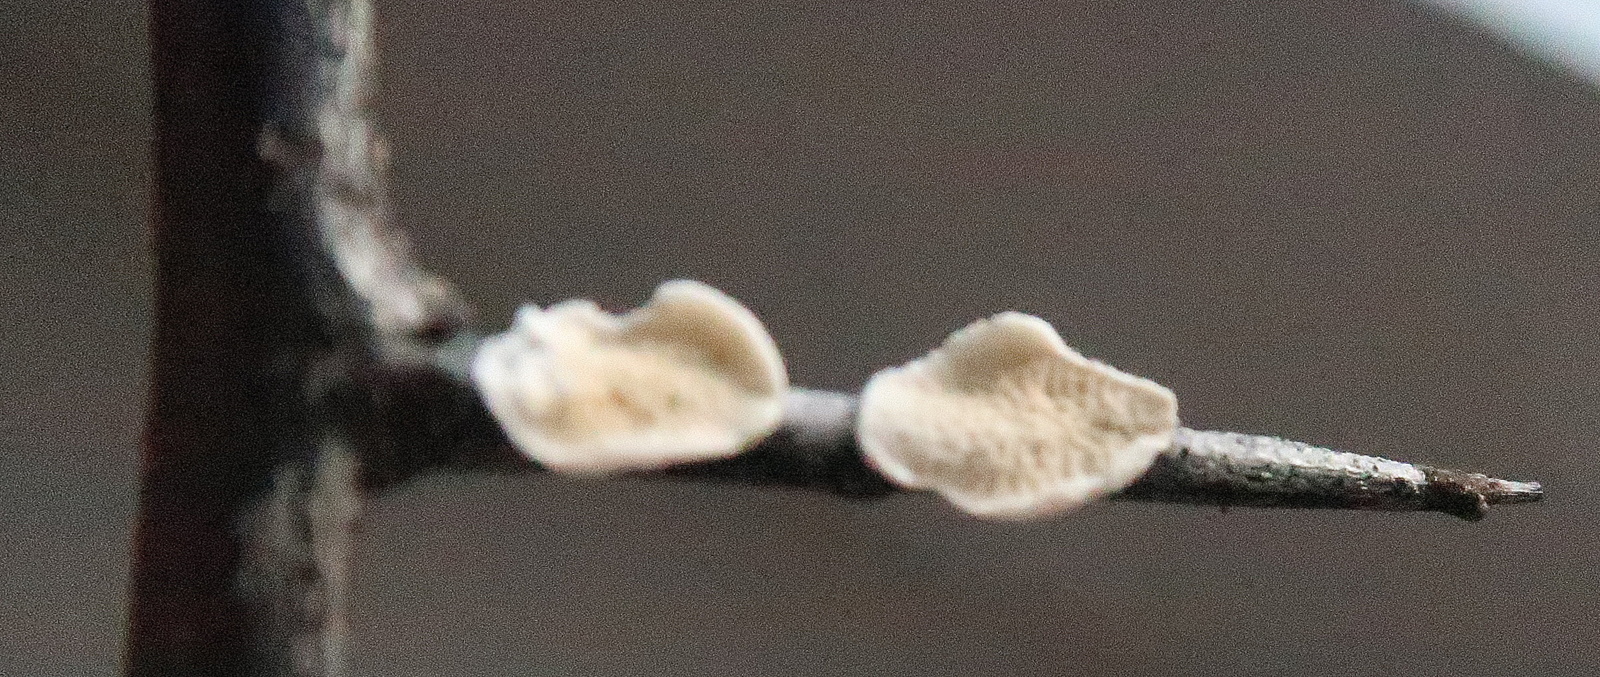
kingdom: Fungi
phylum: Basidiomycota
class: Agaricomycetes
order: Polyporales
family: Irpicaceae
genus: Byssomerulius
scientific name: Byssomerulius corium
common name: læder-åresvamp
